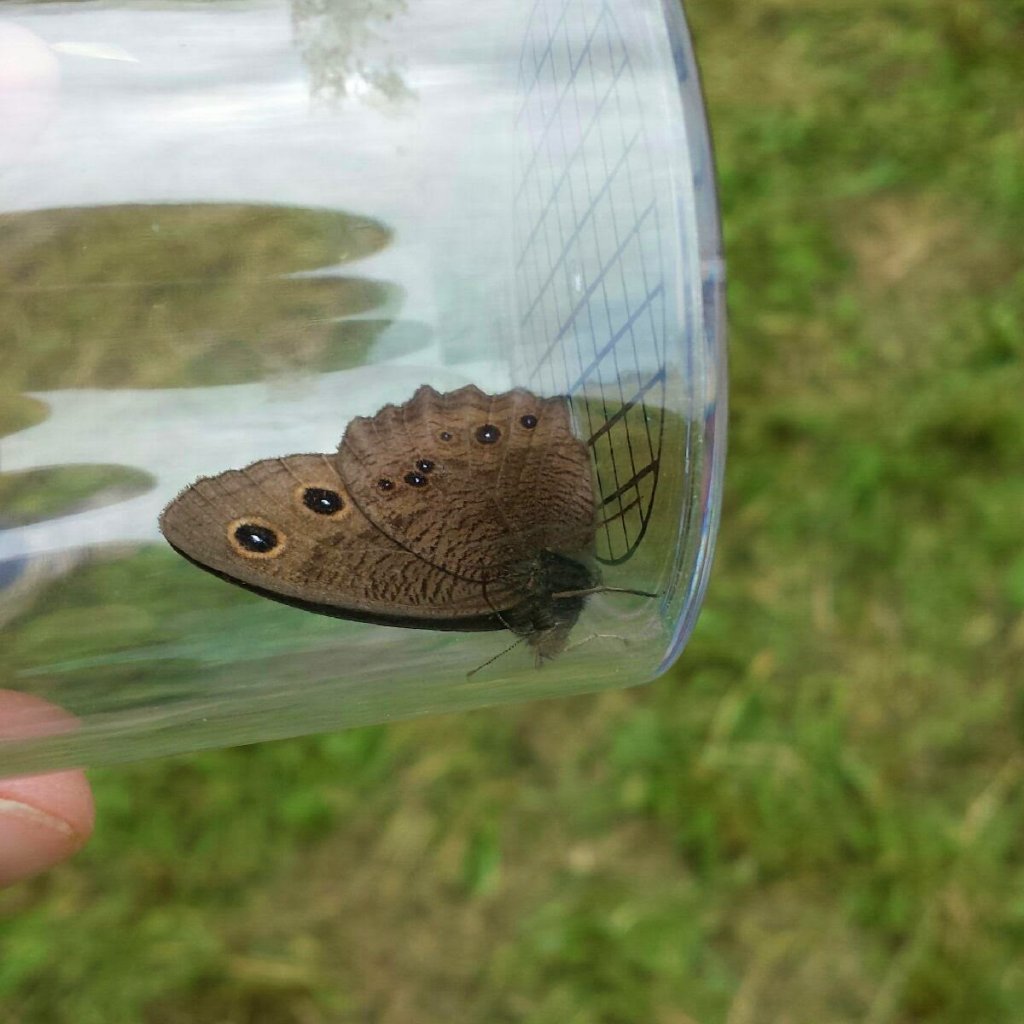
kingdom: Animalia
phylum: Arthropoda
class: Insecta
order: Lepidoptera
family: Nymphalidae
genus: Cercyonis
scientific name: Cercyonis pegala
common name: Common Wood-Nymph
